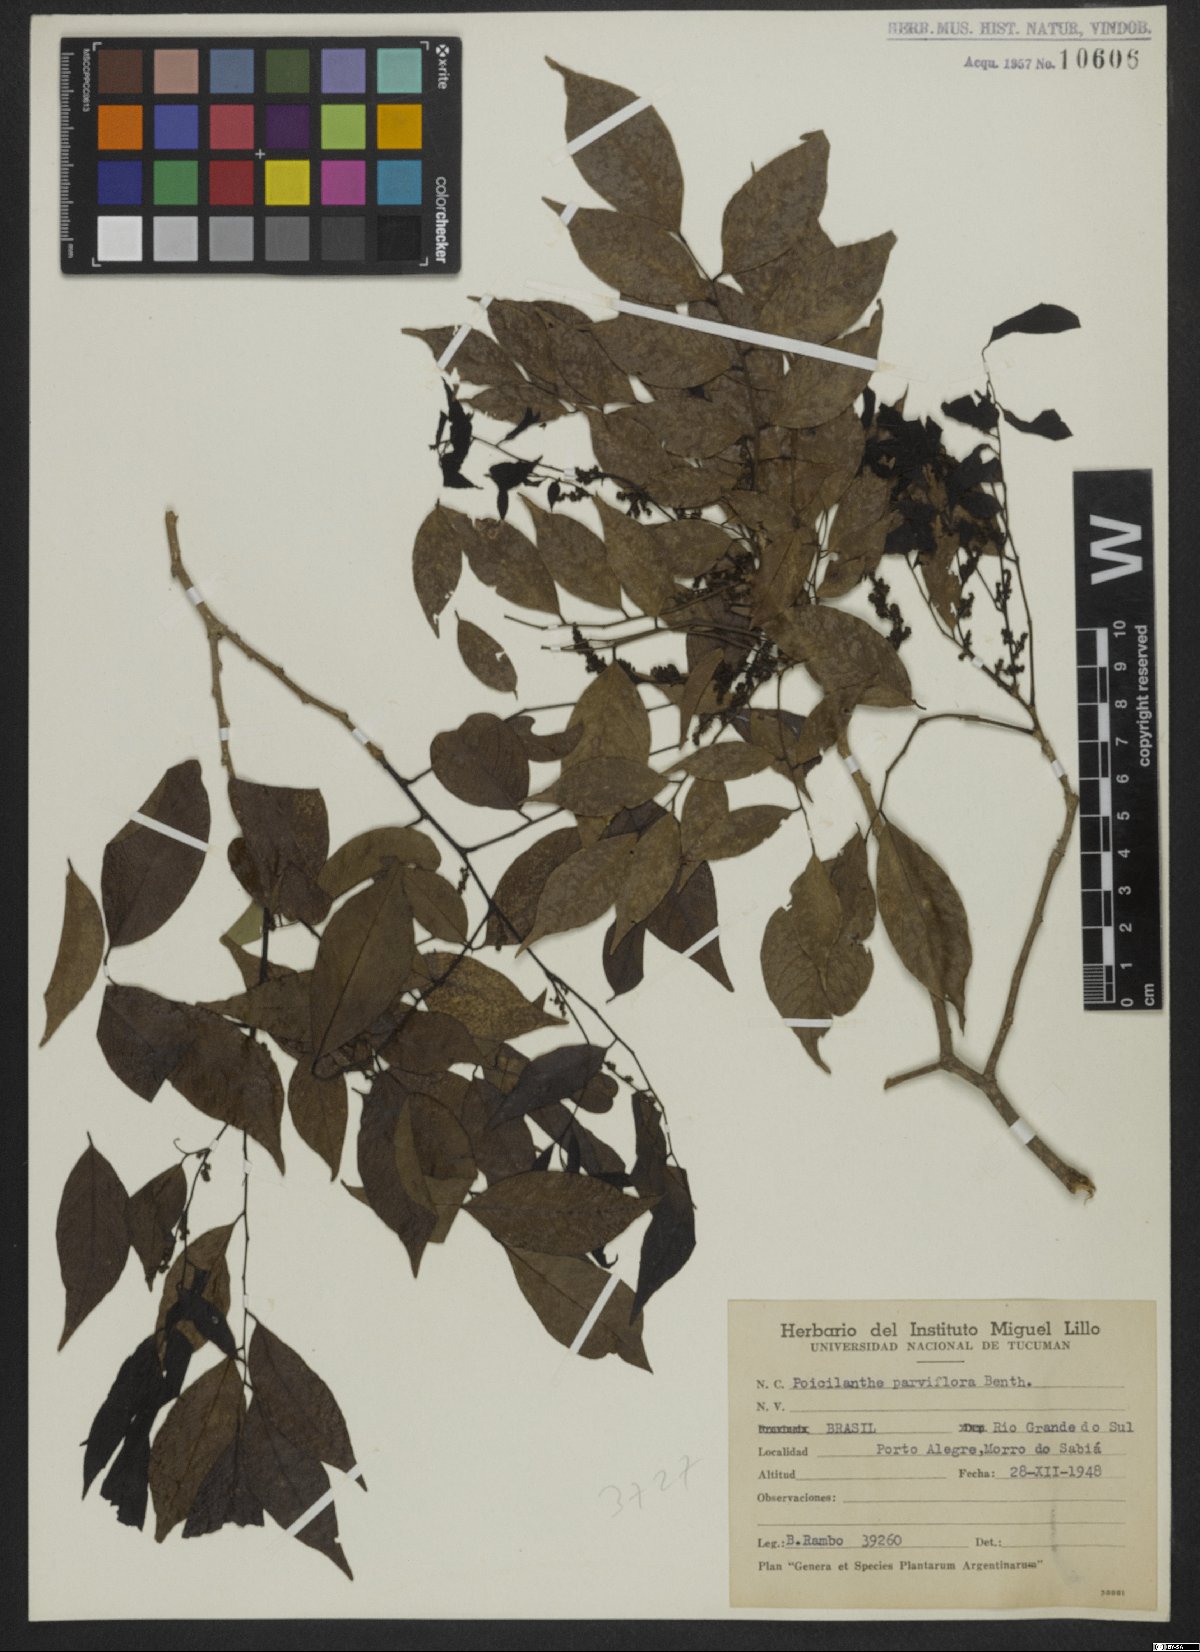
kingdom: Plantae
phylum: Tracheophyta
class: Magnoliopsida
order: Fabales
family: Fabaceae
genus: Poecilanthe
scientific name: Poecilanthe parviflora
